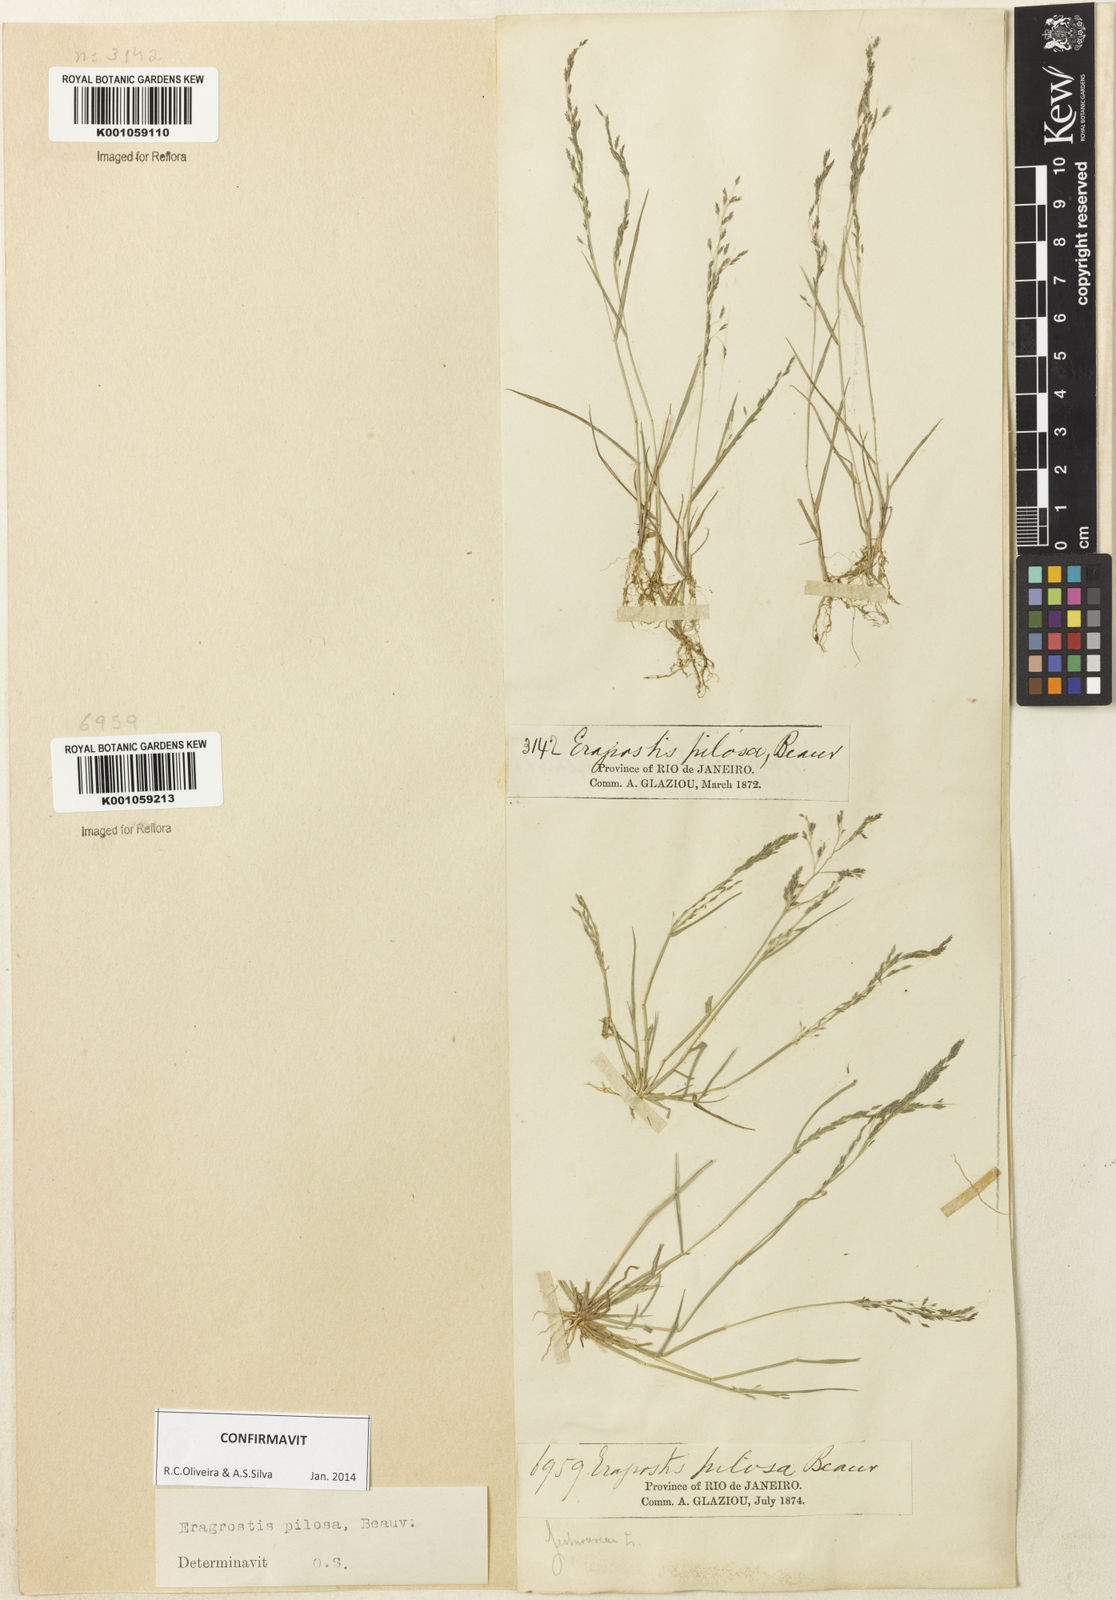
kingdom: Plantae
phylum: Tracheophyta
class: Liliopsida
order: Poales
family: Poaceae
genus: Eragrostis
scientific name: Eragrostis pilosa
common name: Indian lovegrass
